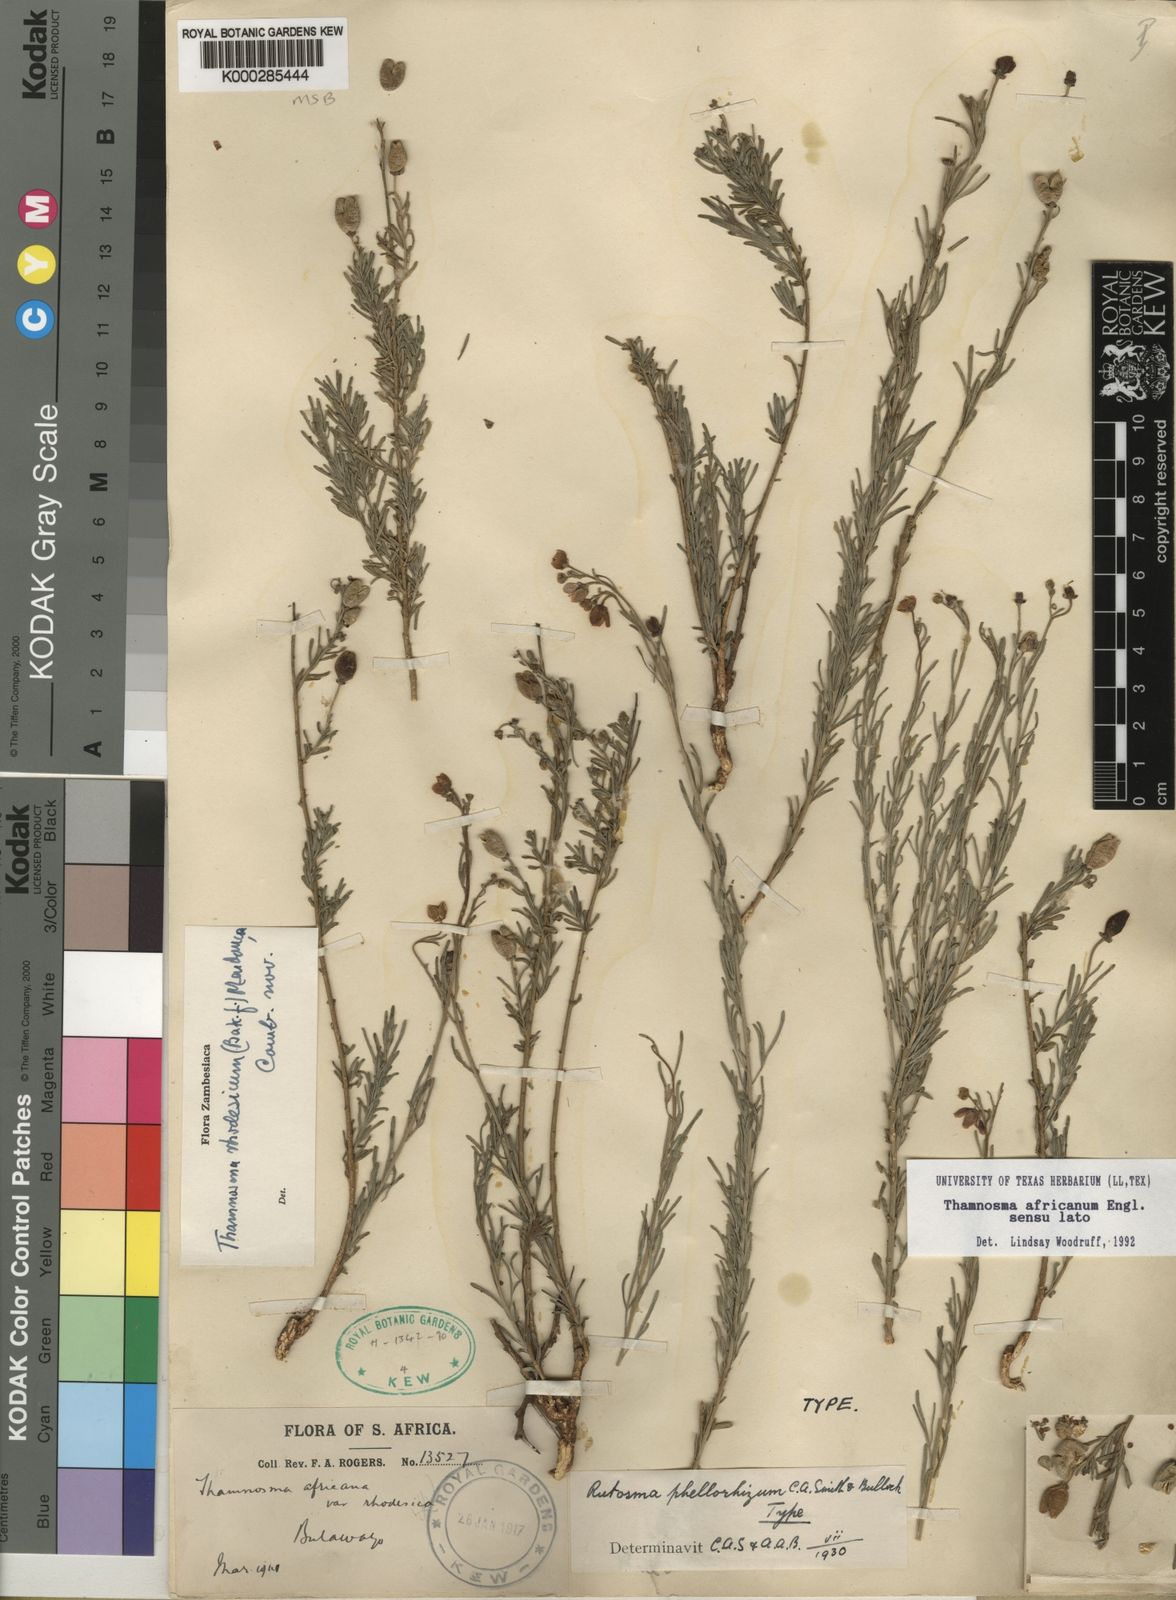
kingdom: Plantae
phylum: Tracheophyta
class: Magnoliopsida
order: Sapindales
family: Rutaceae
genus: Thamnosma
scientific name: Thamnosma rhodesica
